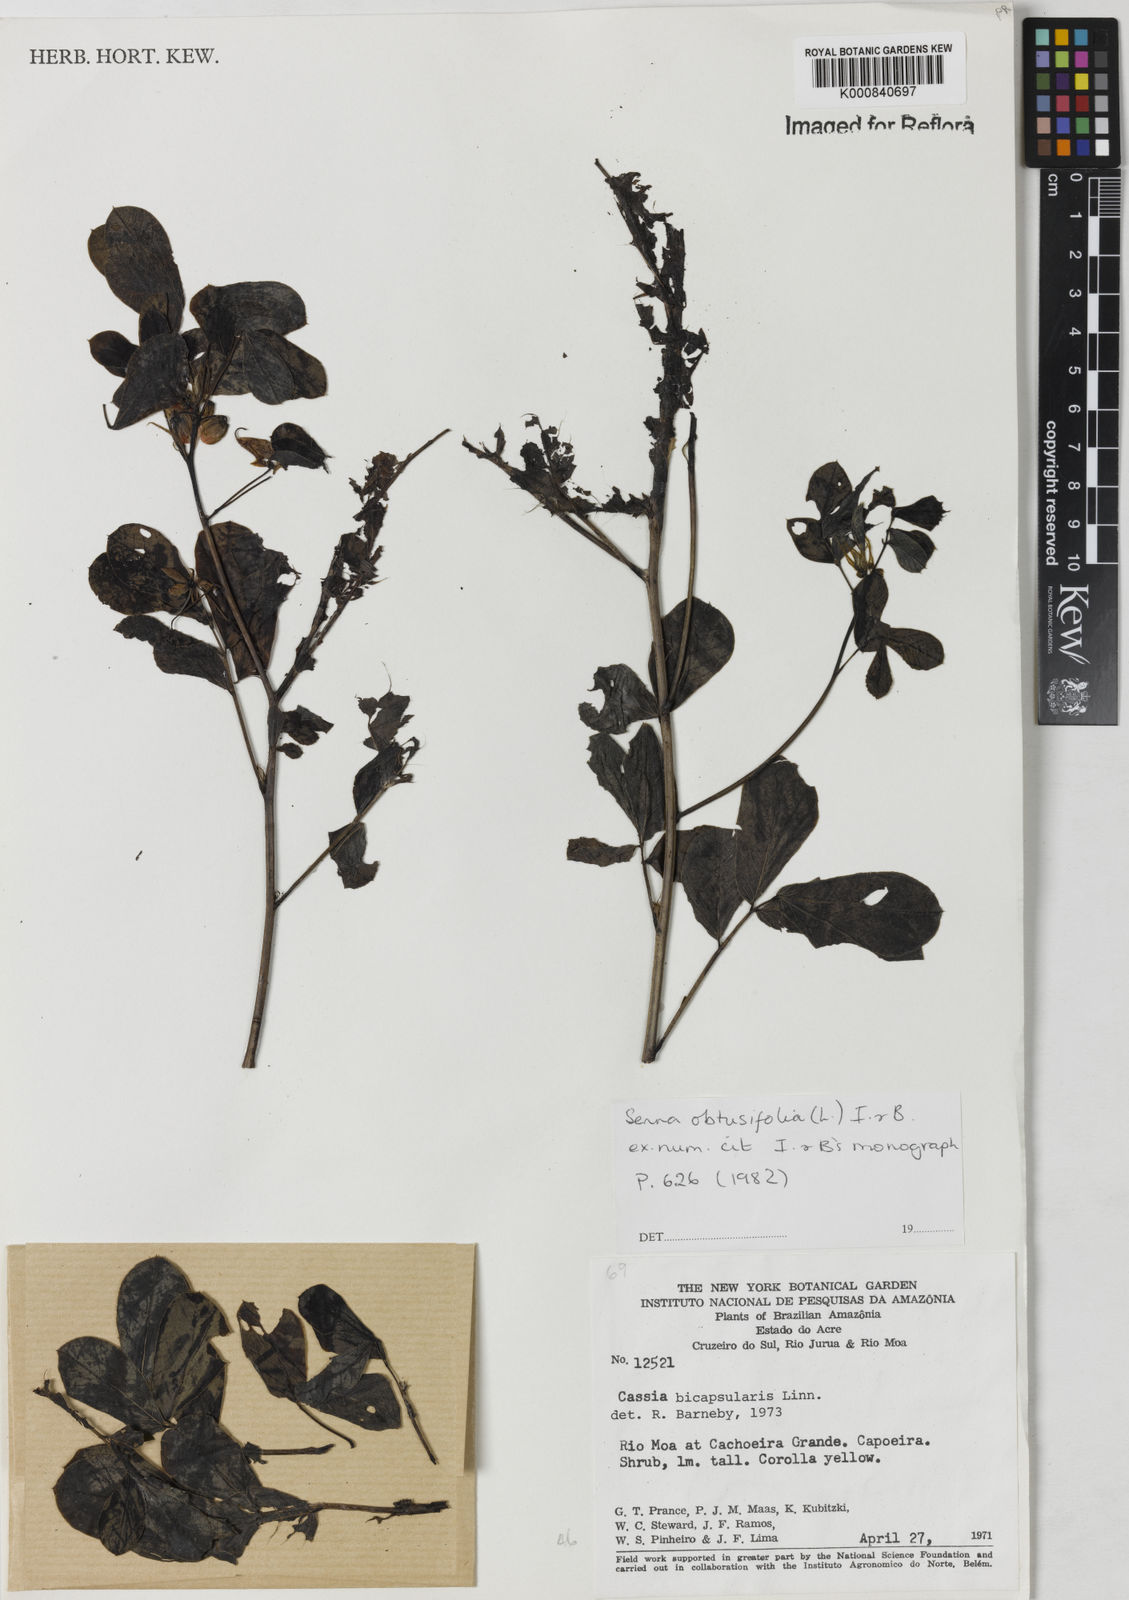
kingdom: Plantae
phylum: Tracheophyta
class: Magnoliopsida
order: Fabales
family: Fabaceae
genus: Senna
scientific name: Senna obtusifolia
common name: Java-bean
